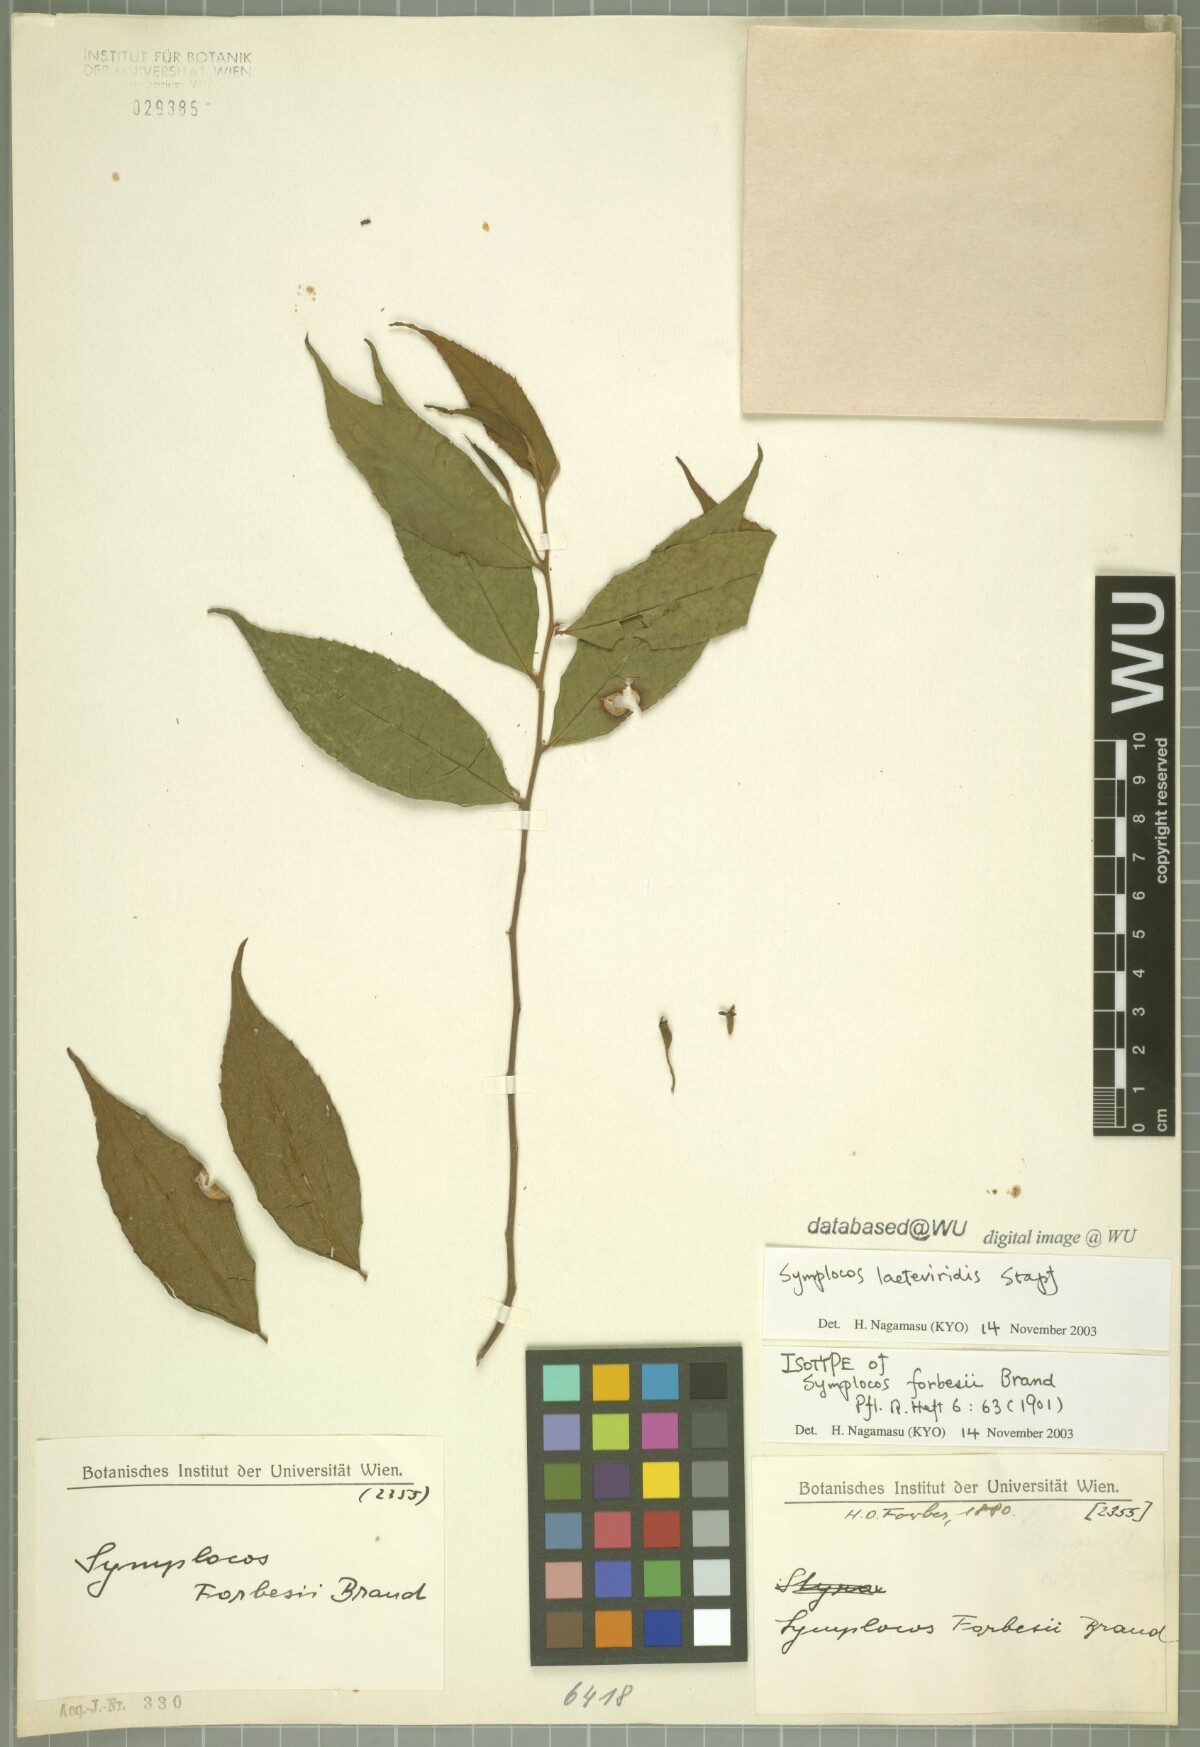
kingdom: Plantae
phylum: Tracheophyta
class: Magnoliopsida
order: Ericales
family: Symplocaceae
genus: Symplocos
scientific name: Symplocos laeteviridis
